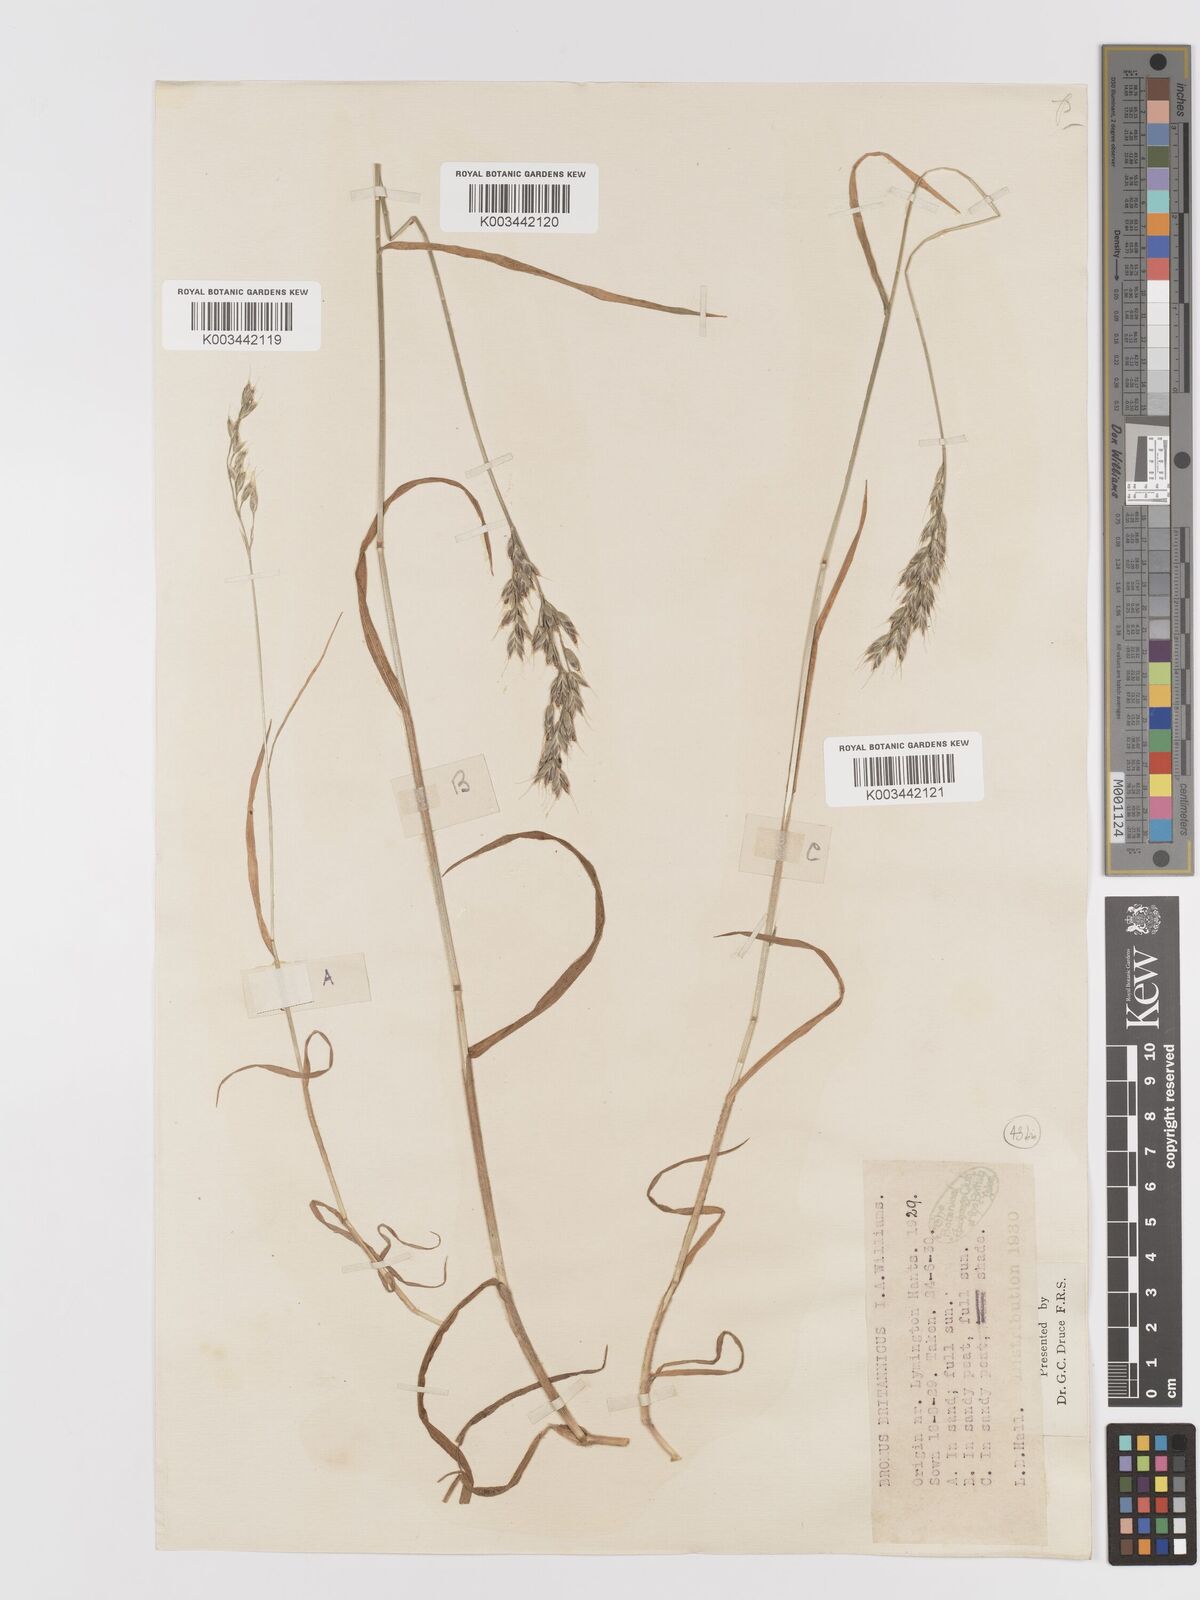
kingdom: Plantae
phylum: Tracheophyta
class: Liliopsida
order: Poales
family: Poaceae
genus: Bromus
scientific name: Bromus lepidus
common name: Slender soft-brome
